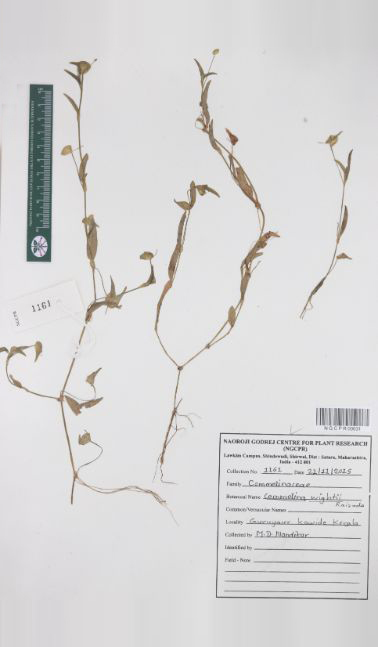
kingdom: Plantae
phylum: Tracheophyta
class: Liliopsida
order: Commelinales
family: Commelinaceae
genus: Commelina
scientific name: Commelina wightii
